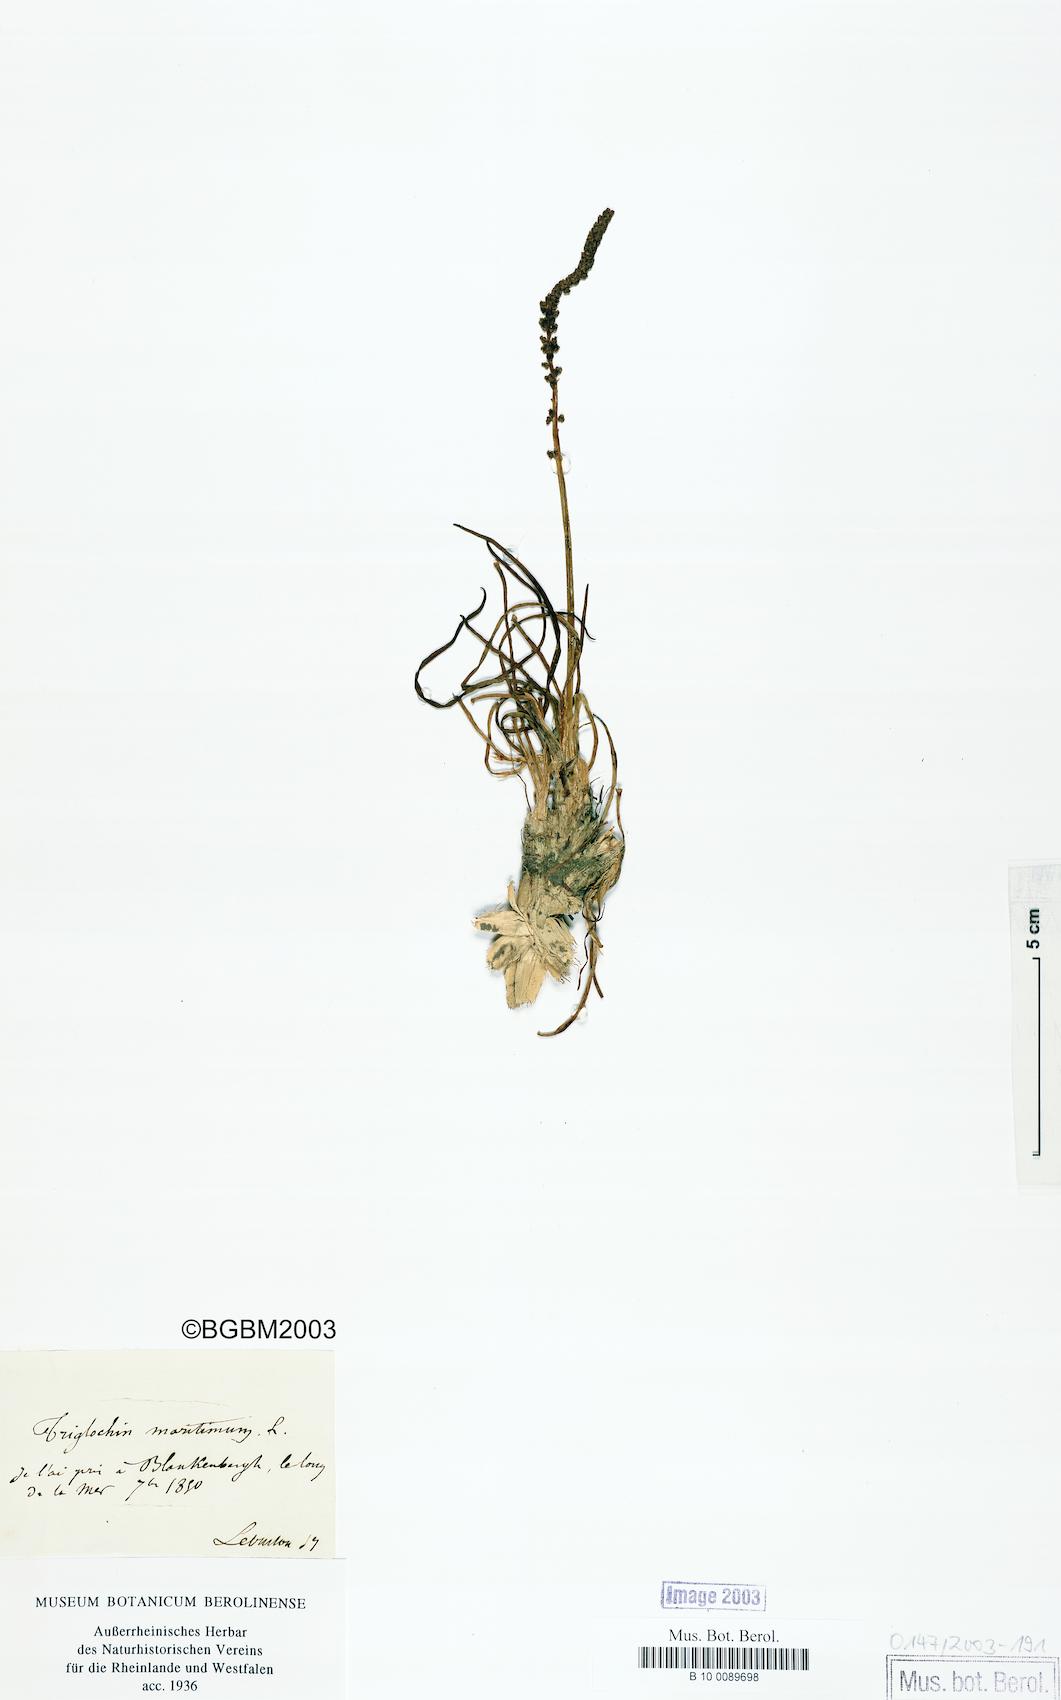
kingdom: Plantae
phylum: Tracheophyta
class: Liliopsida
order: Alismatales
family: Juncaginaceae
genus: Triglochin
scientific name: Triglochin maritima
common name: Sea arrowgrass
